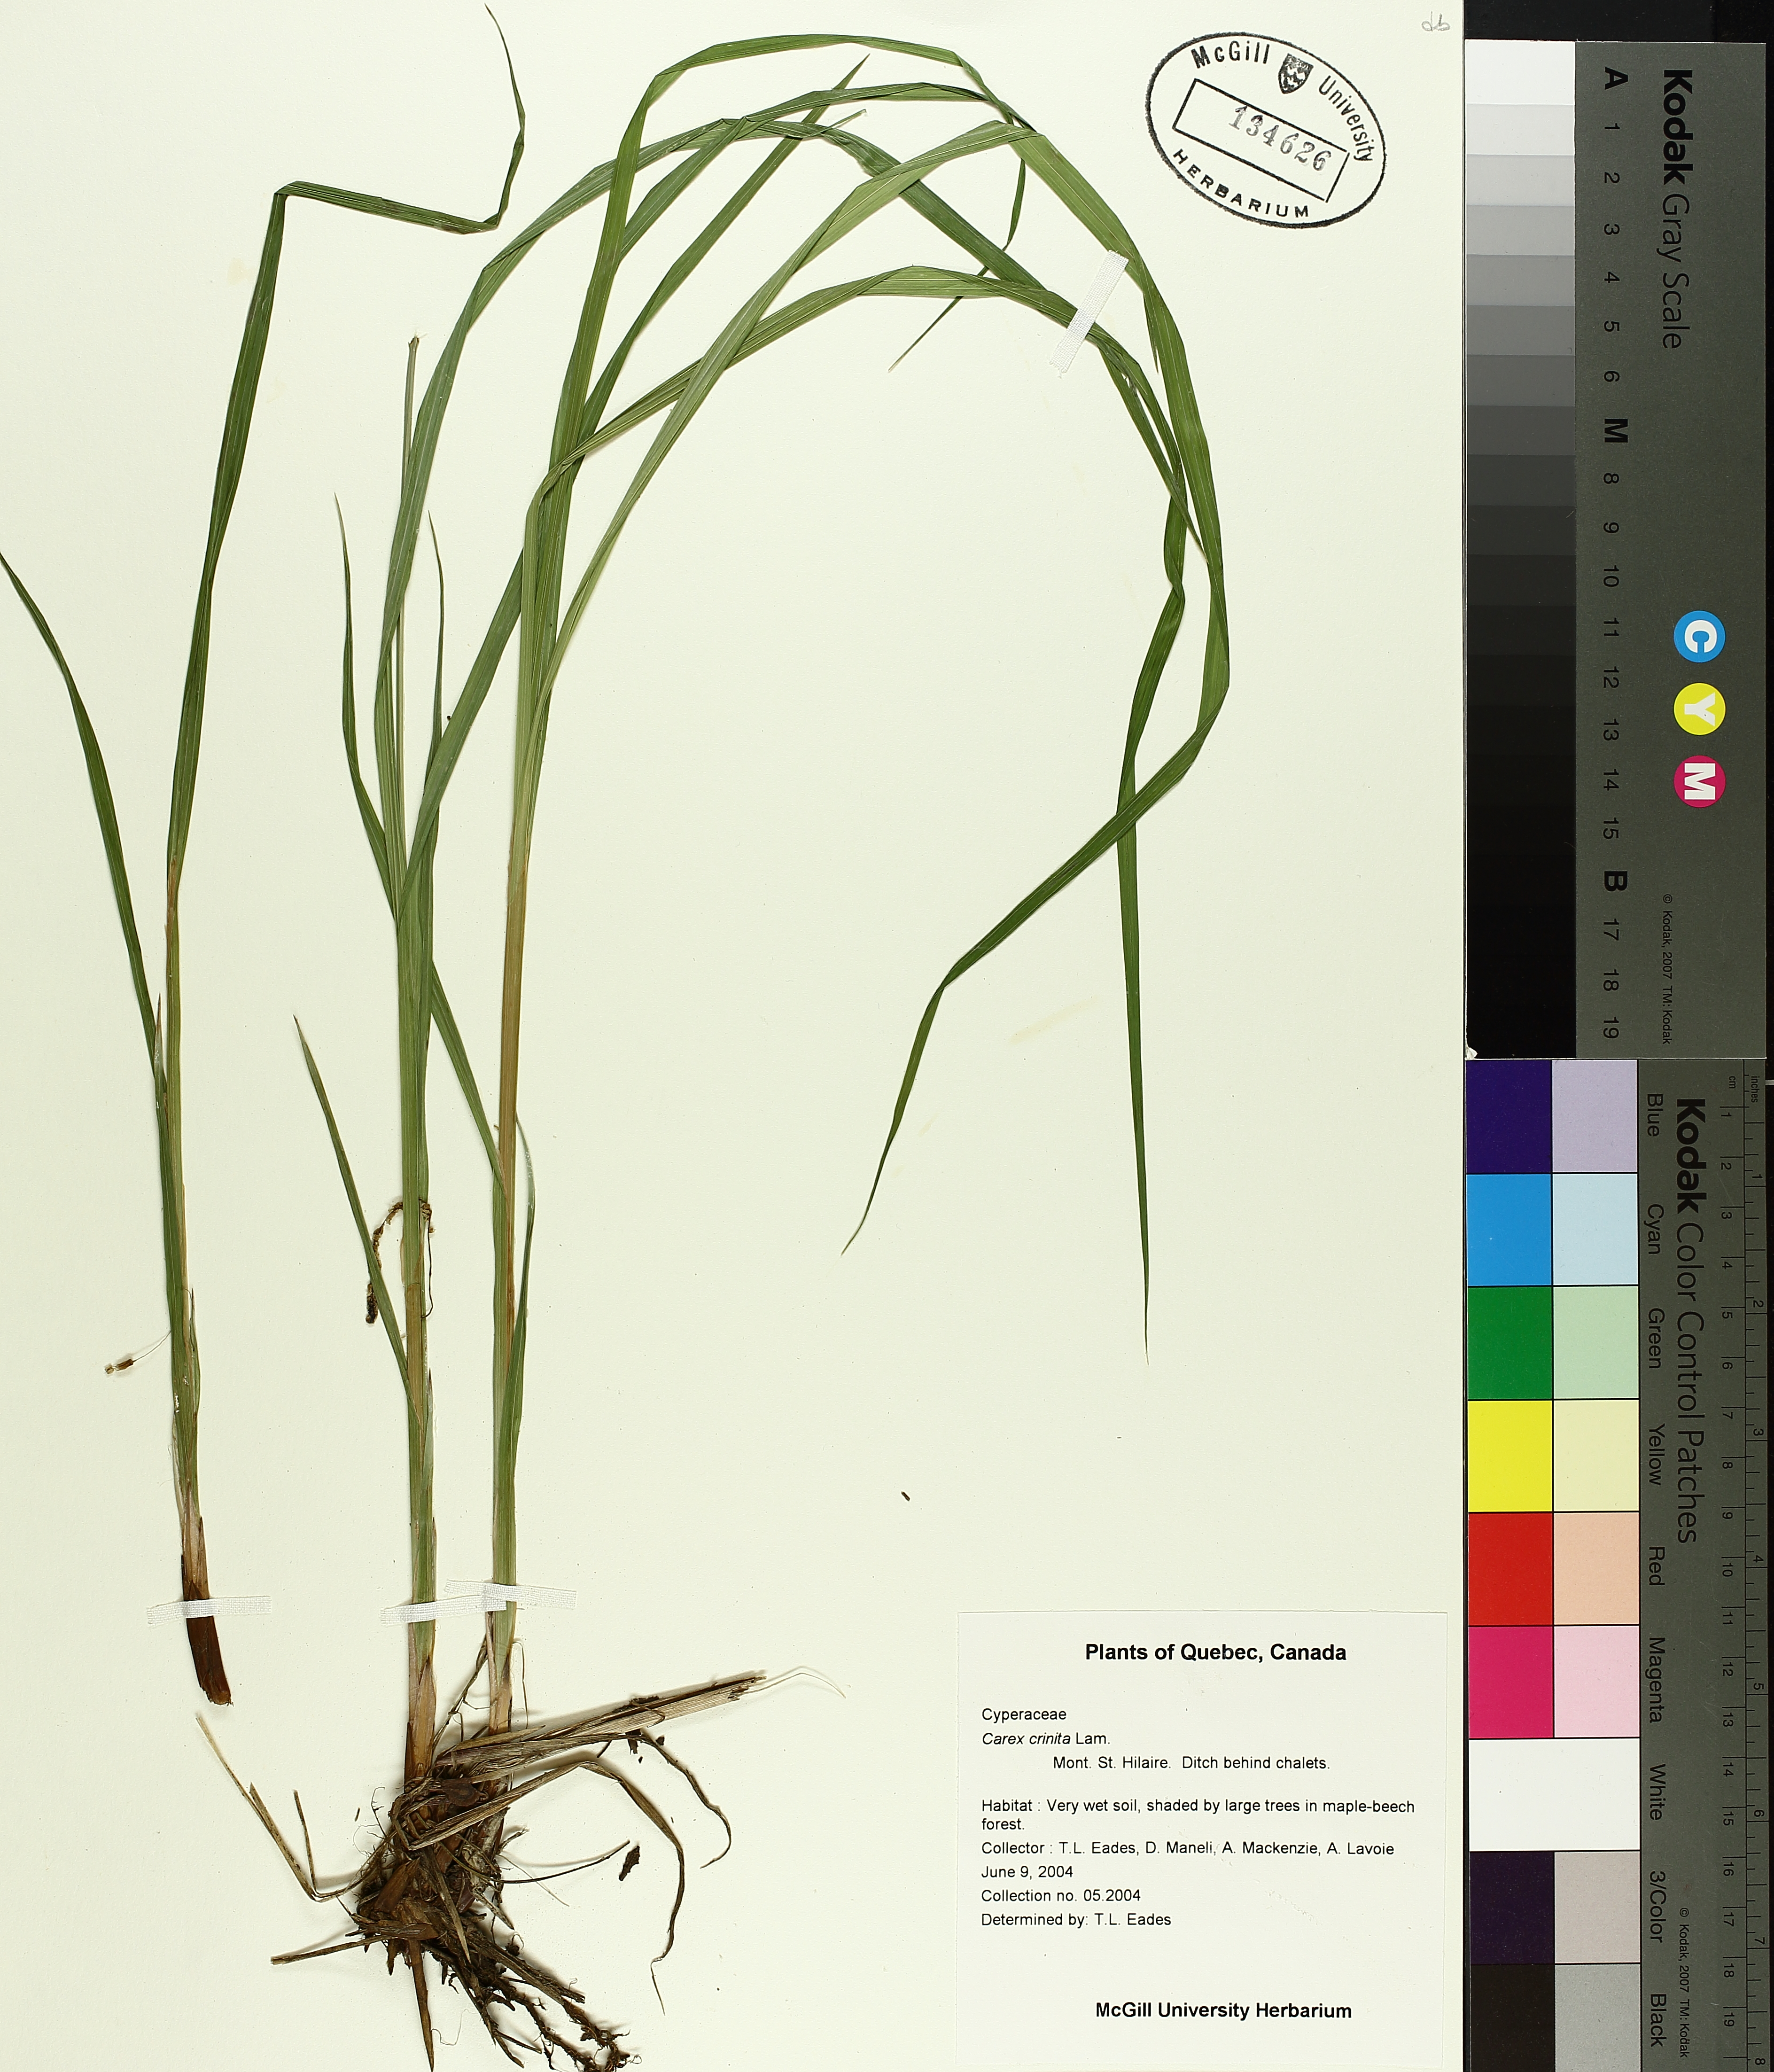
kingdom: Plantae
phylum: Tracheophyta
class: Liliopsida
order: Poales
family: Cyperaceae
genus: Carex
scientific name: Carex crinita
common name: Fringed sedge
